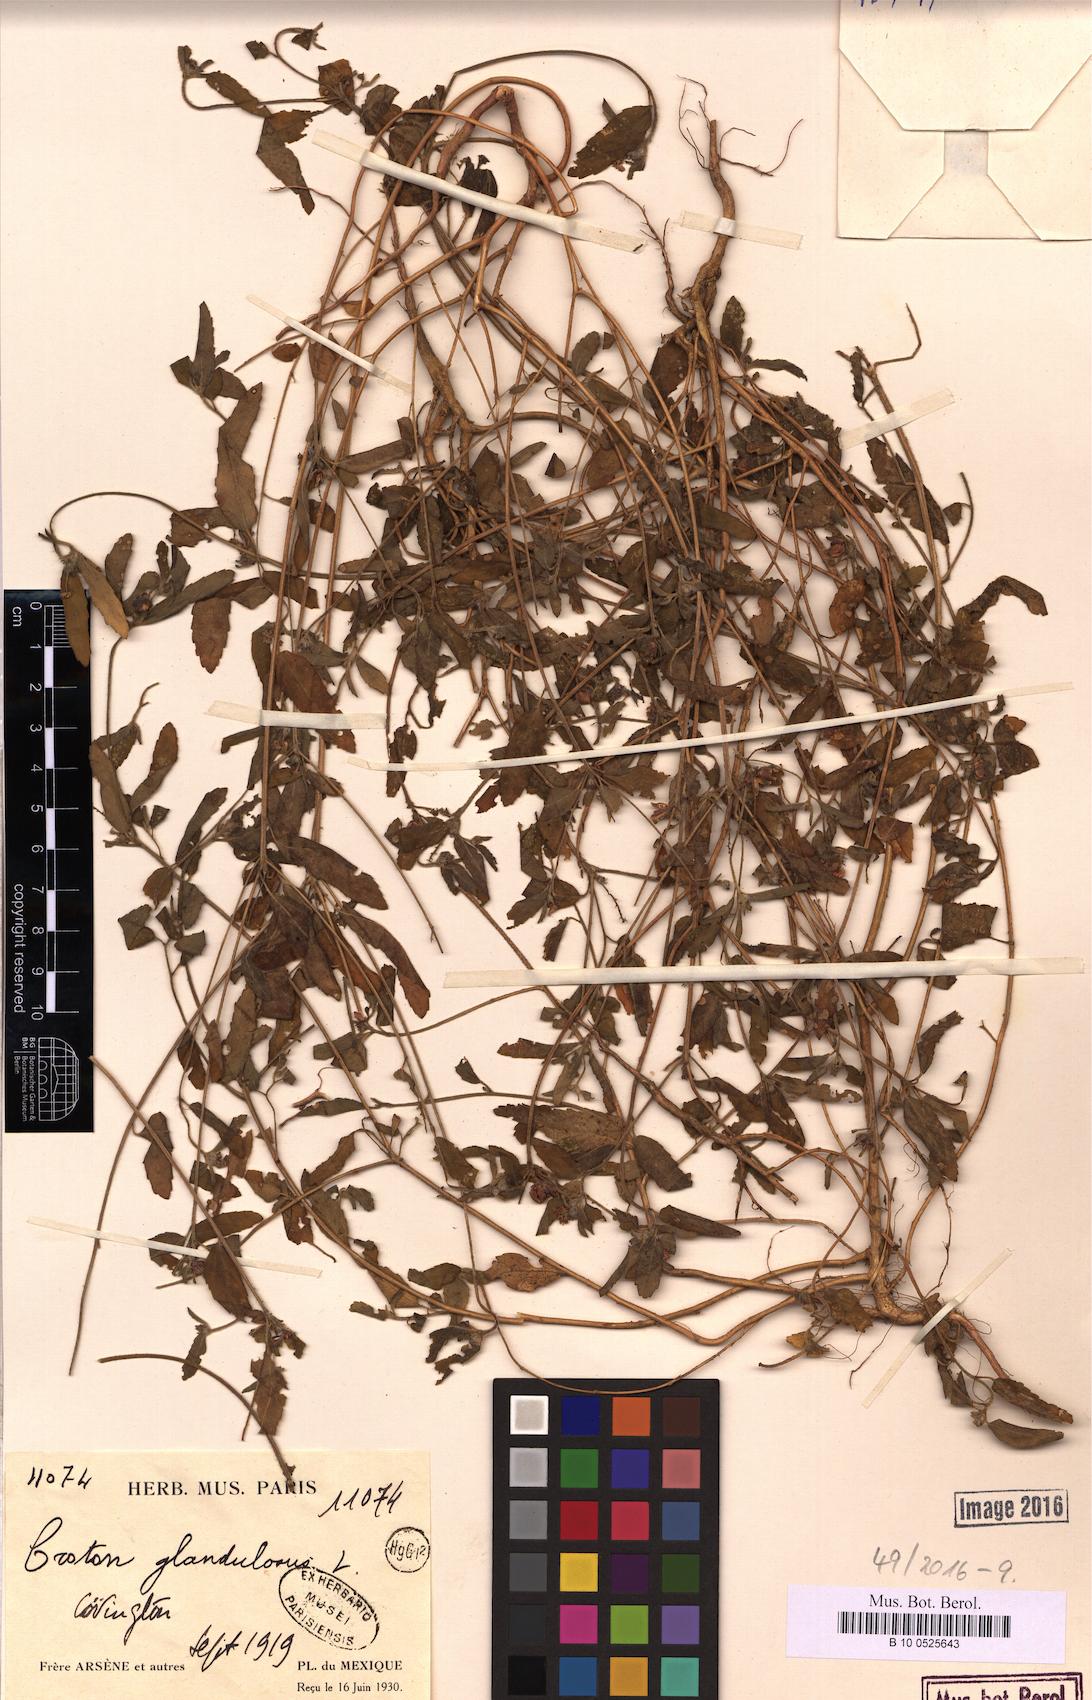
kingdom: Plantae
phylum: Tracheophyta
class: Magnoliopsida
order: Malpighiales
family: Euphorbiaceae
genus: Croton
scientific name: Croton glandulosus
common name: Tropic croton
